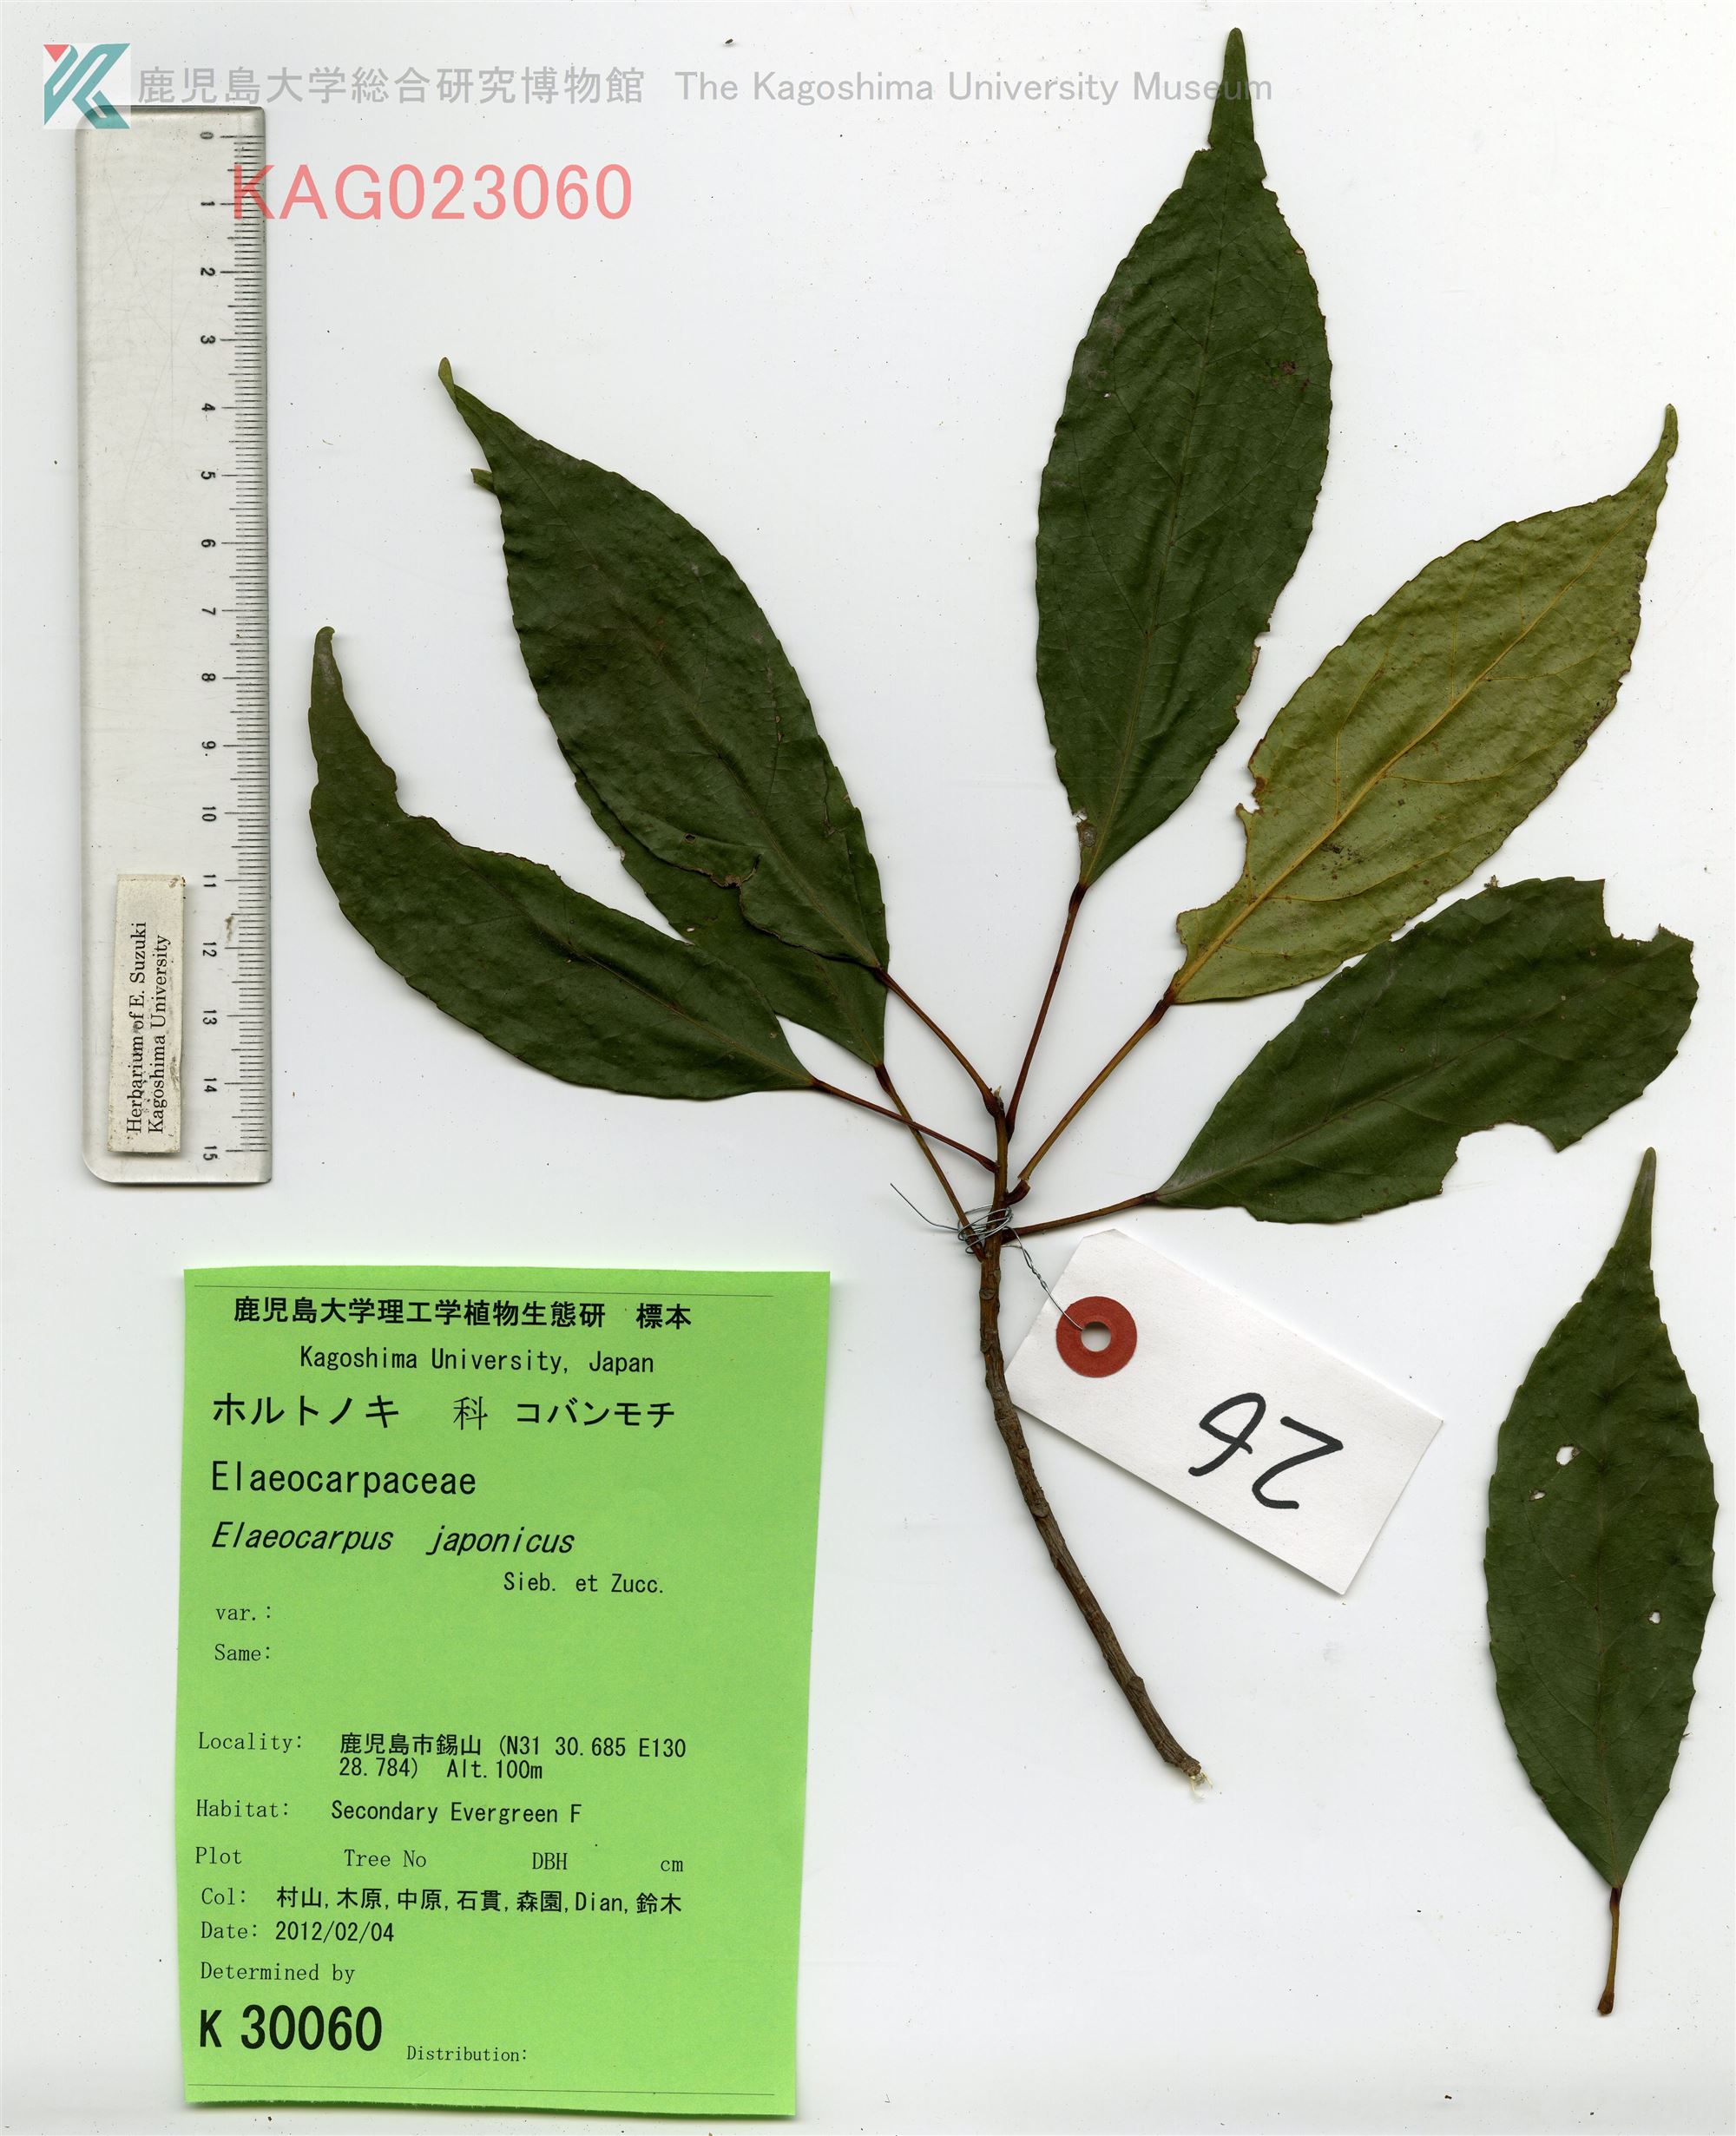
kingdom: Plantae
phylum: Tracheophyta
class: Magnoliopsida
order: Oxalidales
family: Elaeocarpaceae
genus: Elaeocarpus
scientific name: Elaeocarpus japonicus
